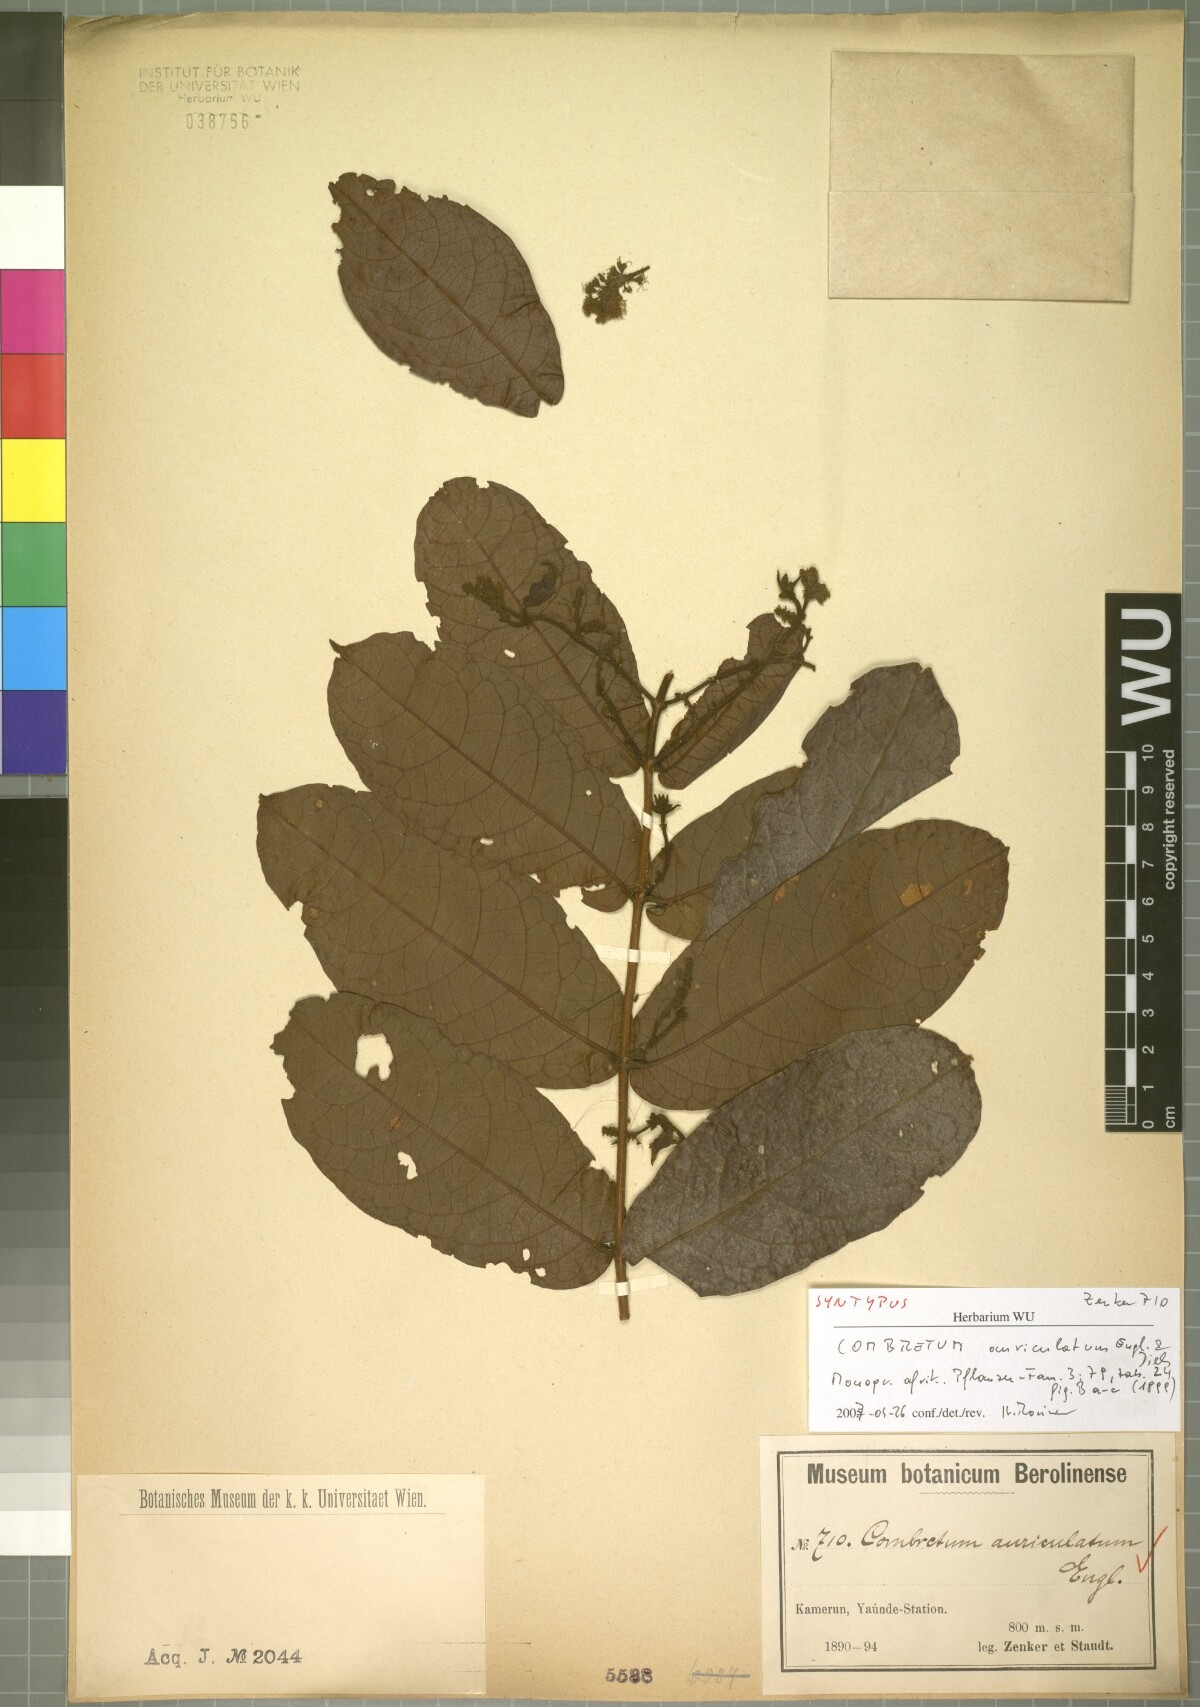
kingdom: Plantae
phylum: Tracheophyta
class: Magnoliopsida
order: Myrtales
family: Combretaceae
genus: Combretum
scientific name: Combretum auriculatum
